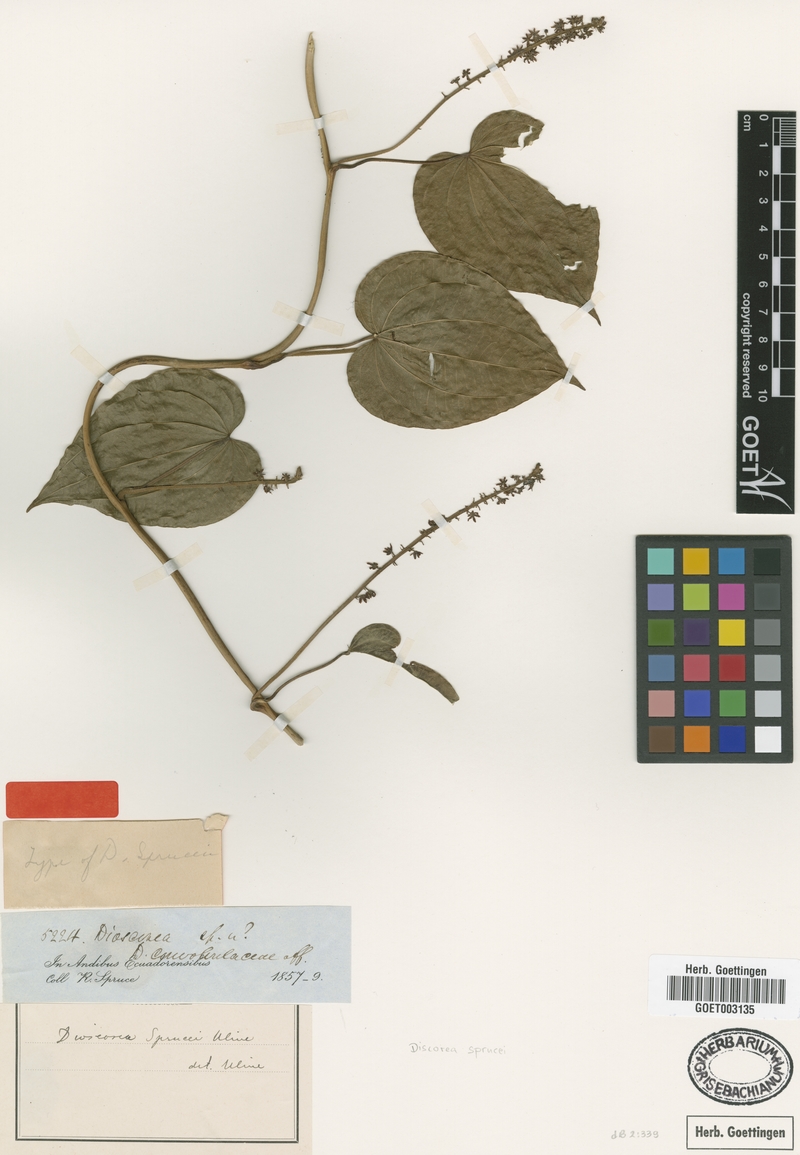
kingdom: Plantae
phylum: Tracheophyta
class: Liliopsida
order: Dioscoreales
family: Dioscoreaceae
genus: Dioscorea
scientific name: Dioscorea sprucei
